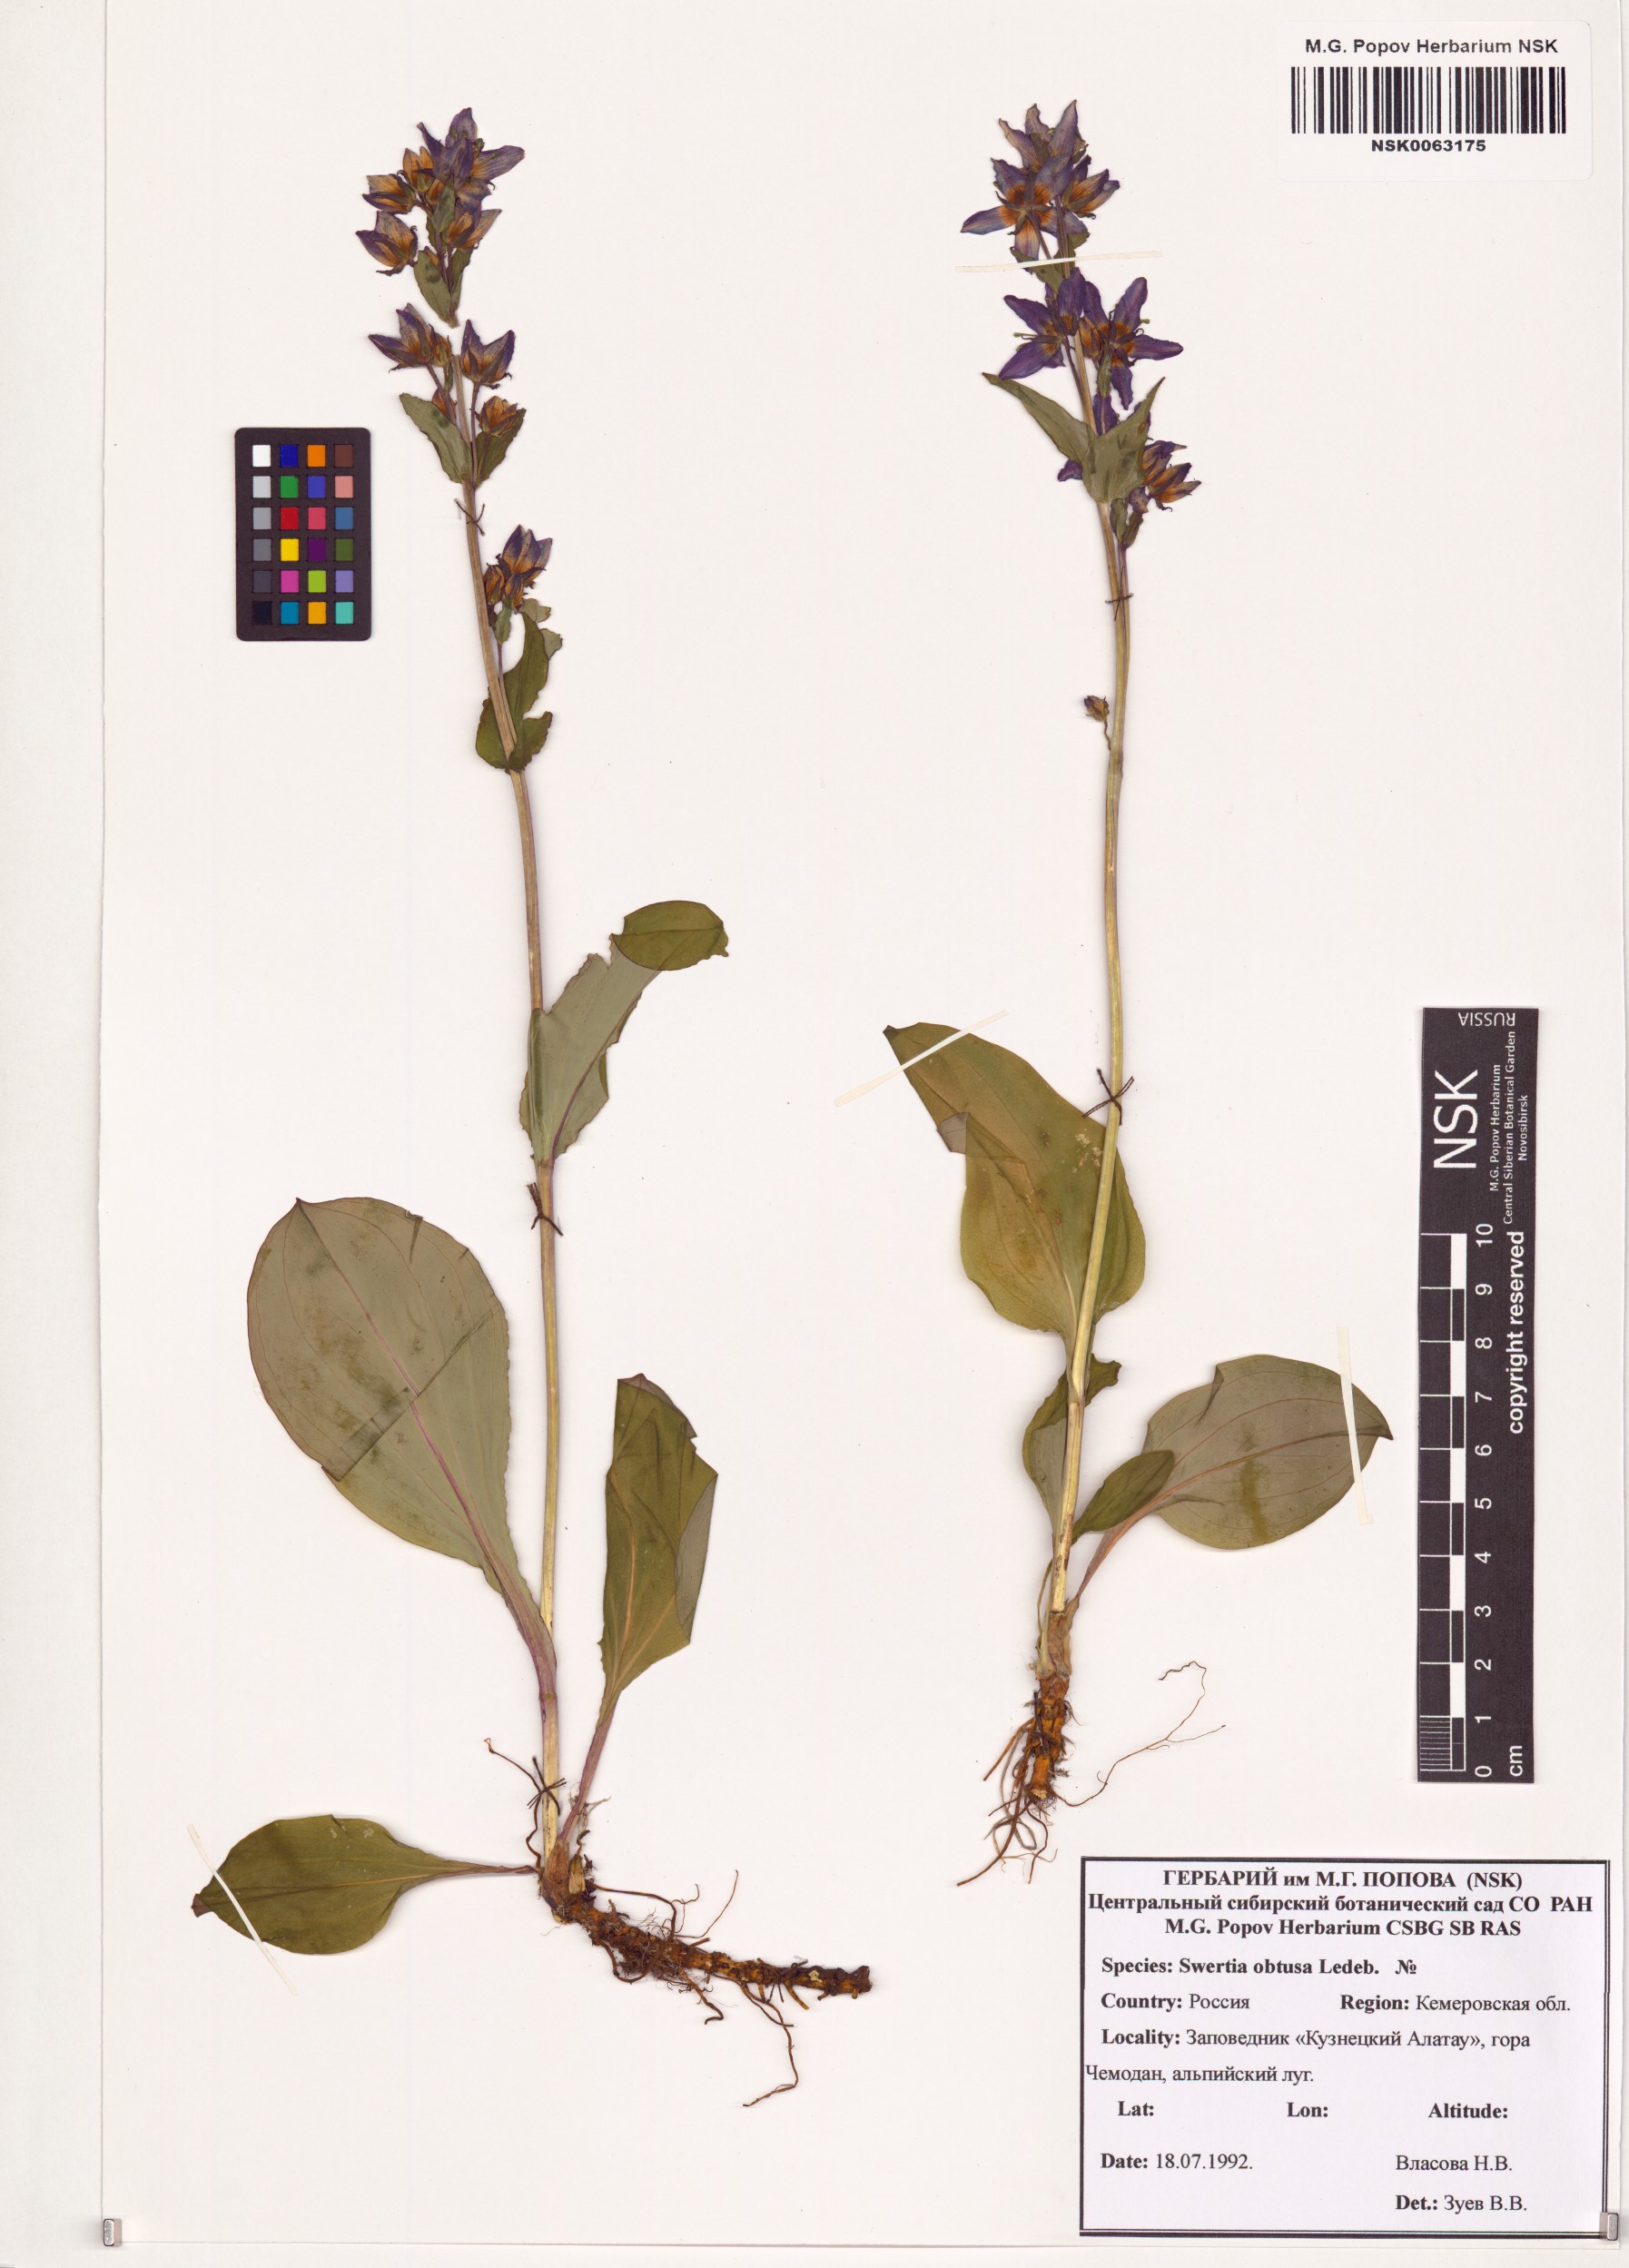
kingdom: Plantae
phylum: Tracheophyta
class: Magnoliopsida
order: Gentianales
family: Gentianaceae
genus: Swertia
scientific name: Swertia obtusa
